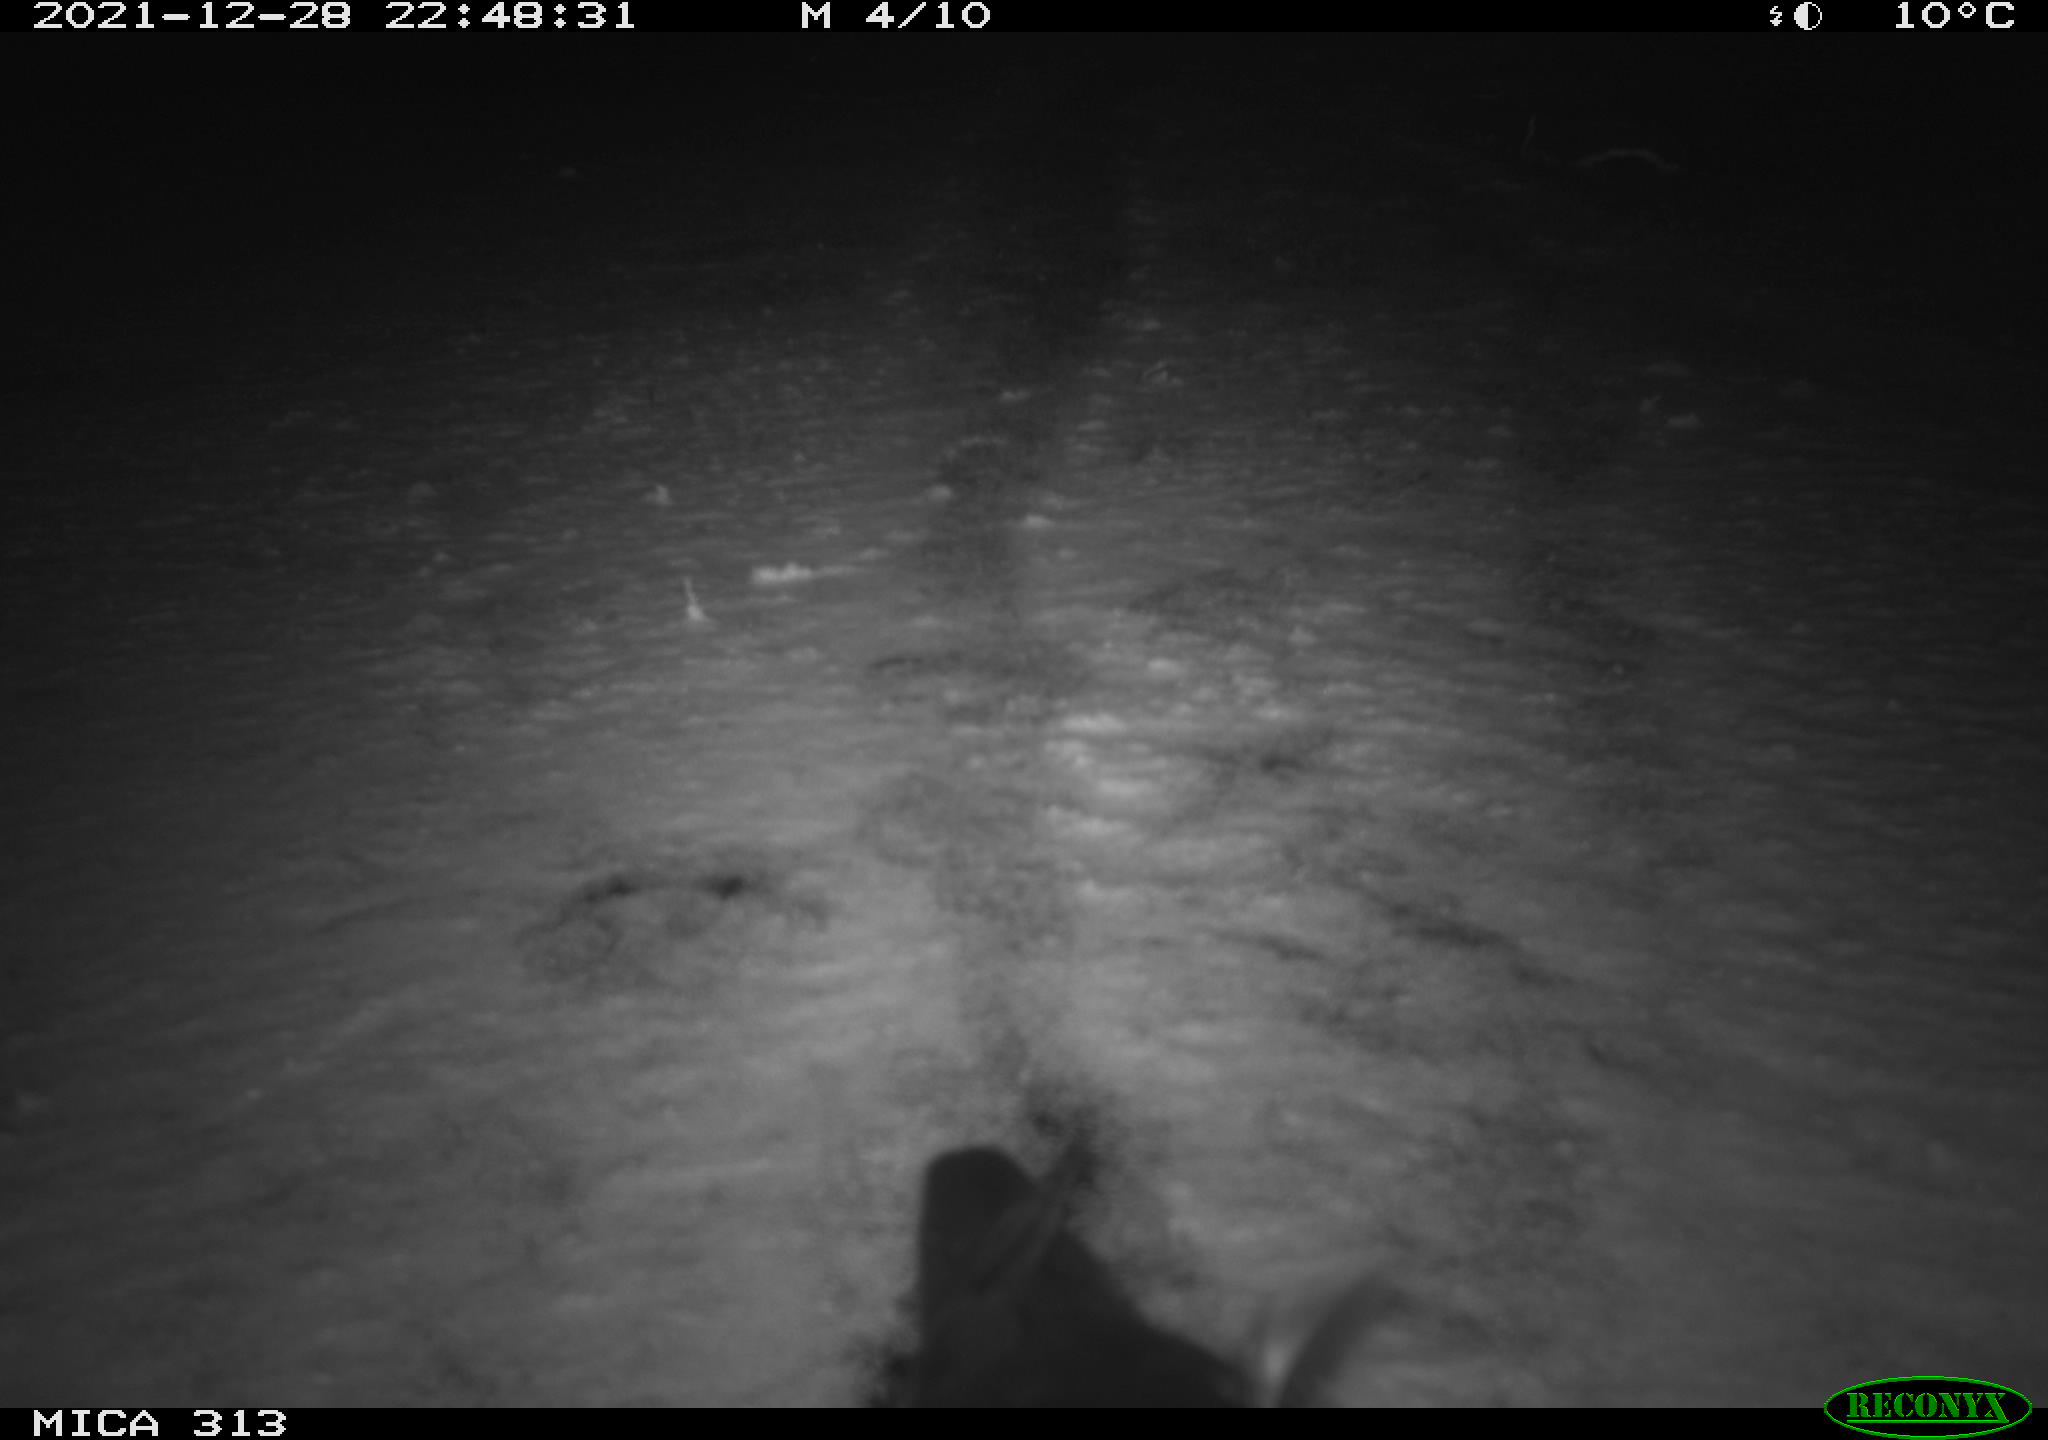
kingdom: Animalia
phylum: Chordata
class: Aves
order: Gruiformes
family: Rallidae
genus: Gallinula
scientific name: Gallinula chloropus
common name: Common moorhen
